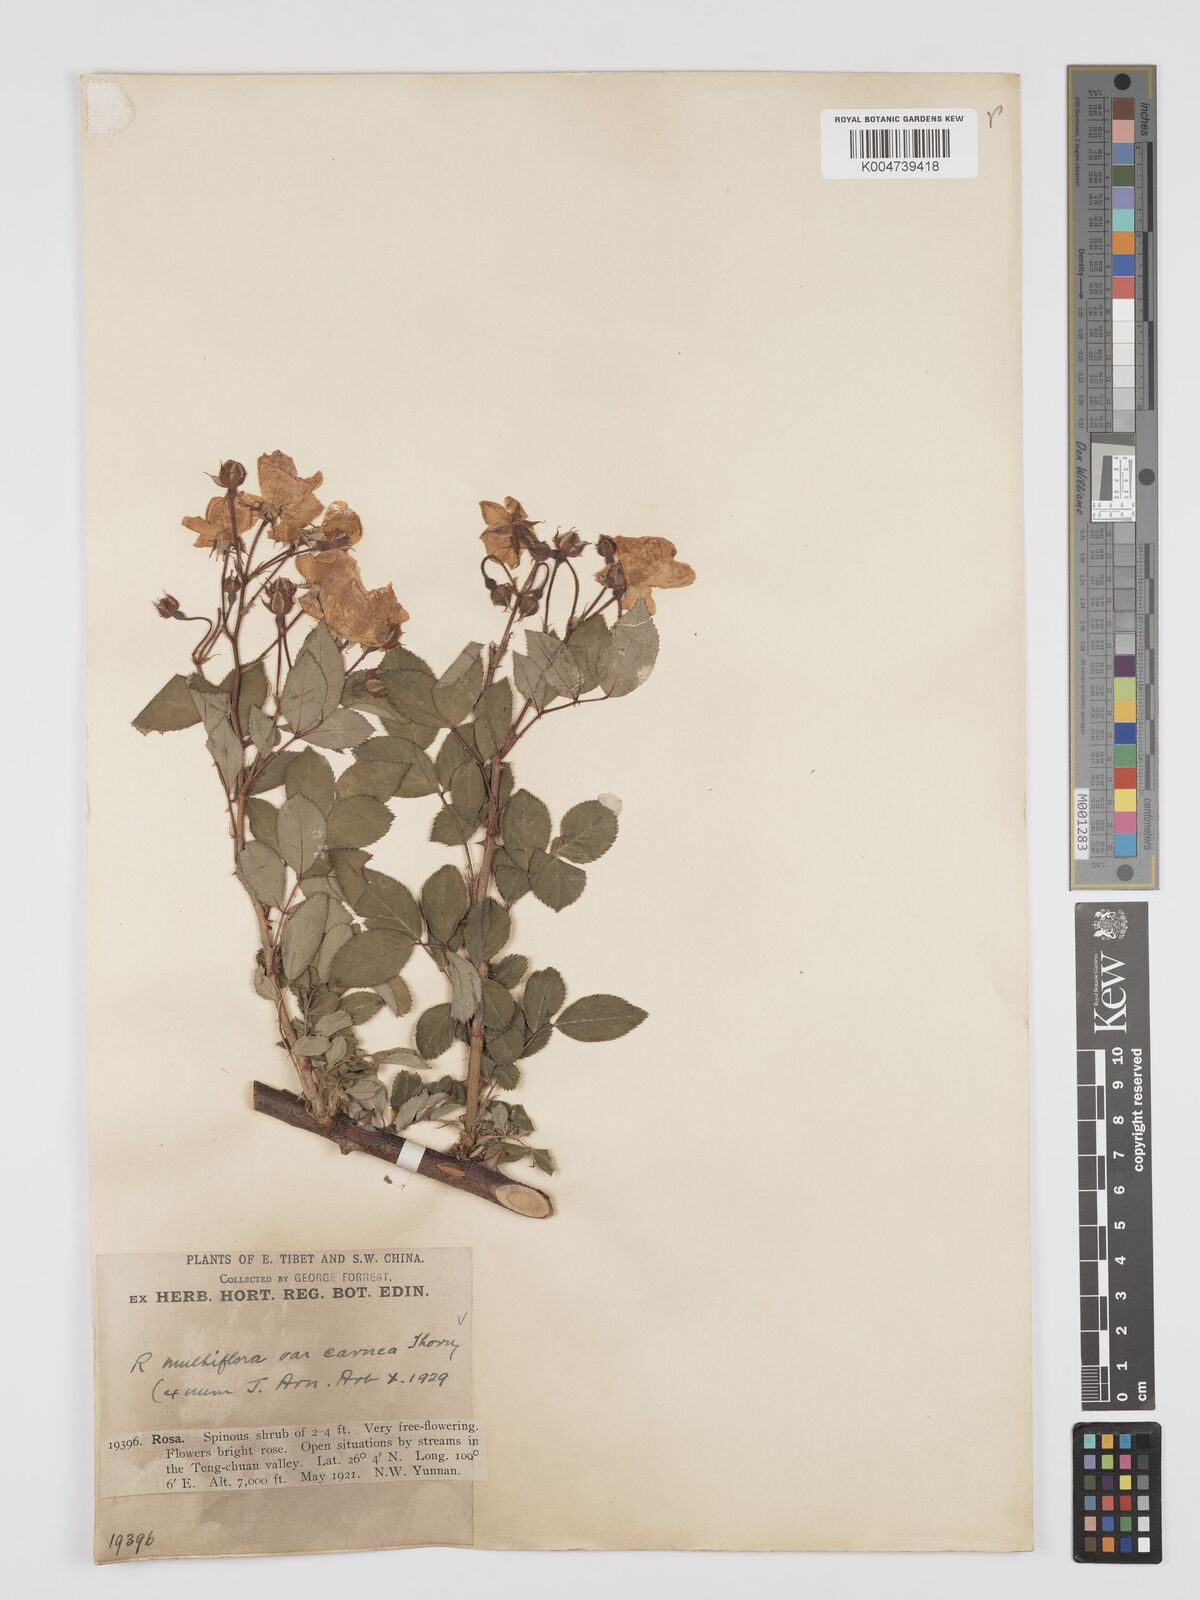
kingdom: Plantae
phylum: Tracheophyta
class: Magnoliopsida
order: Rosales
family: Rosaceae
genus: Rosa
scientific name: Rosa multiflora
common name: Multiflora rose
